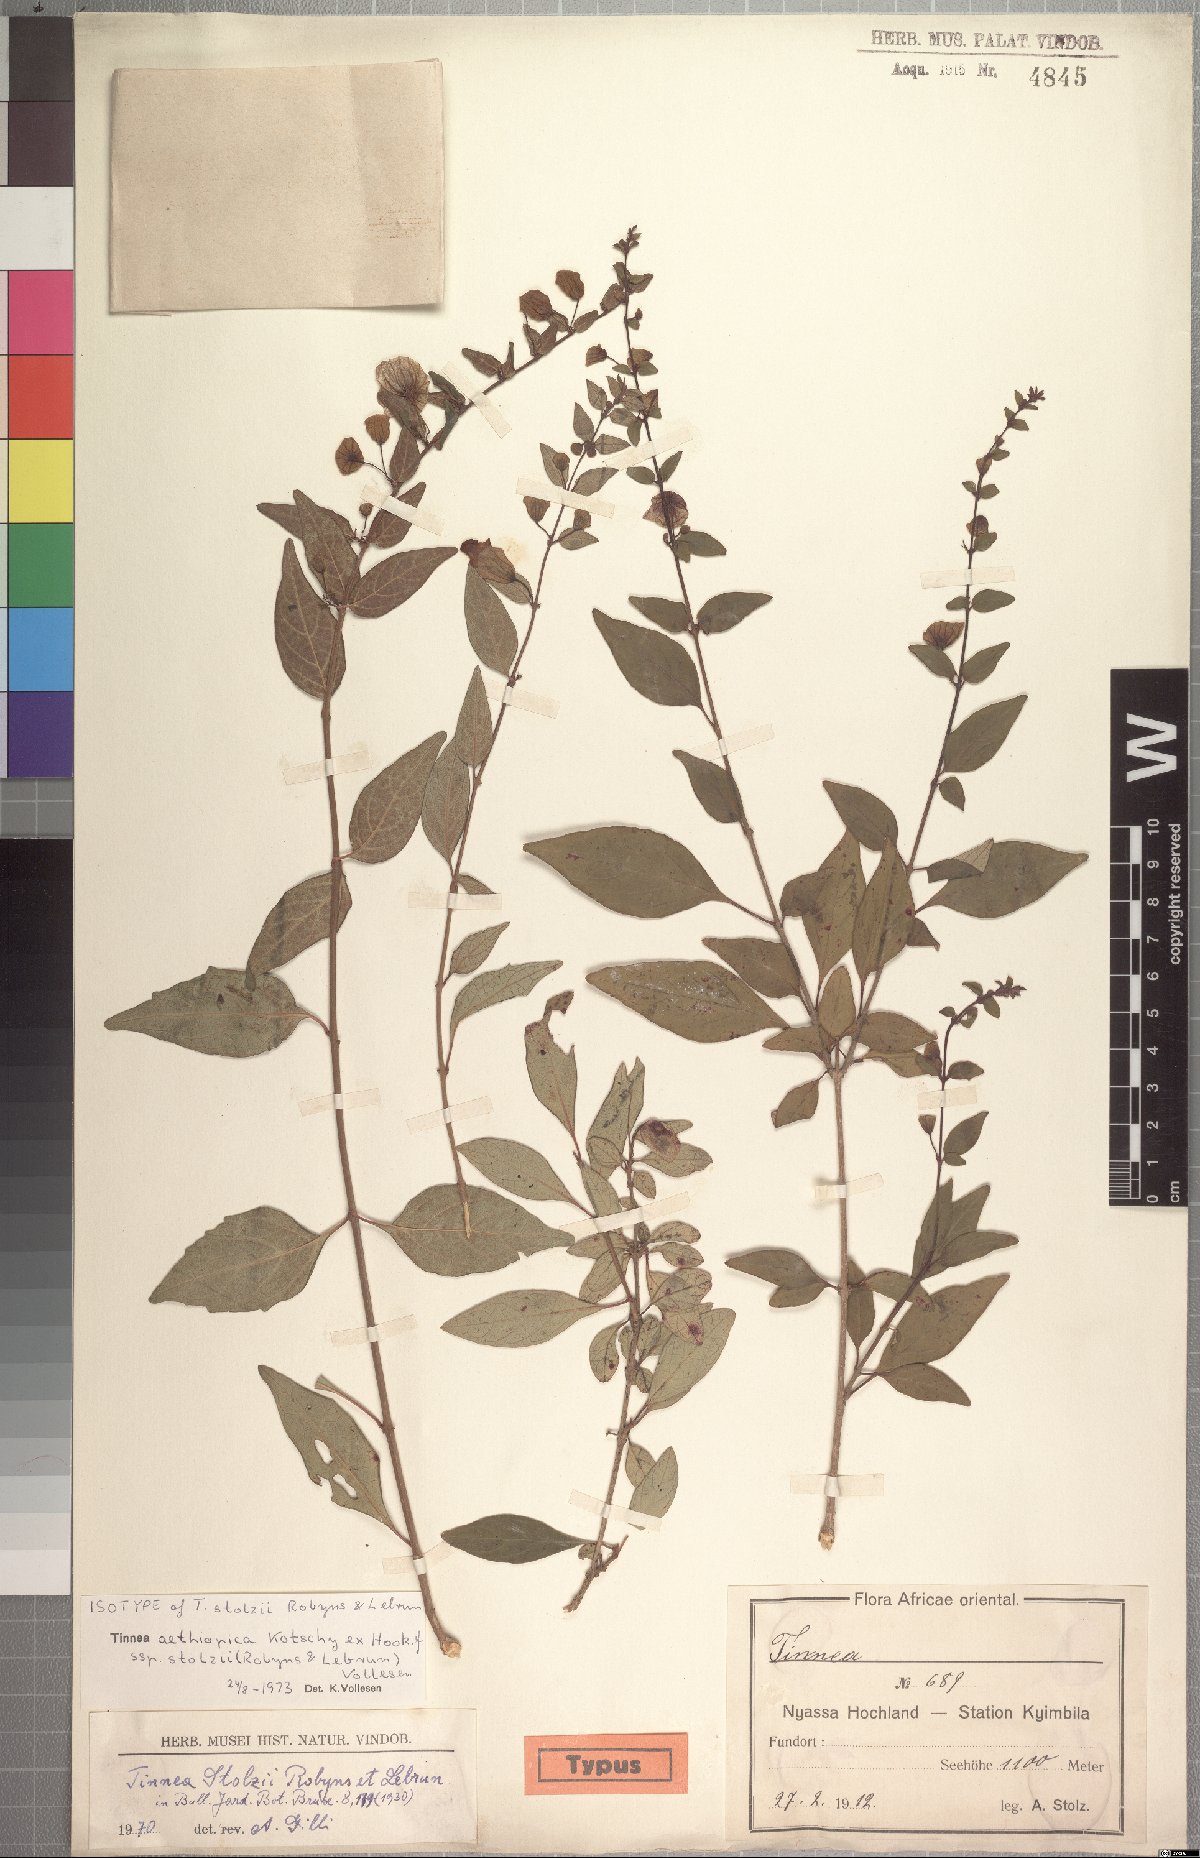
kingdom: Plantae
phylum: Tracheophyta
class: Magnoliopsida
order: Lamiales
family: Lamiaceae
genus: Tinnea
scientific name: Tinnea aethiopica
